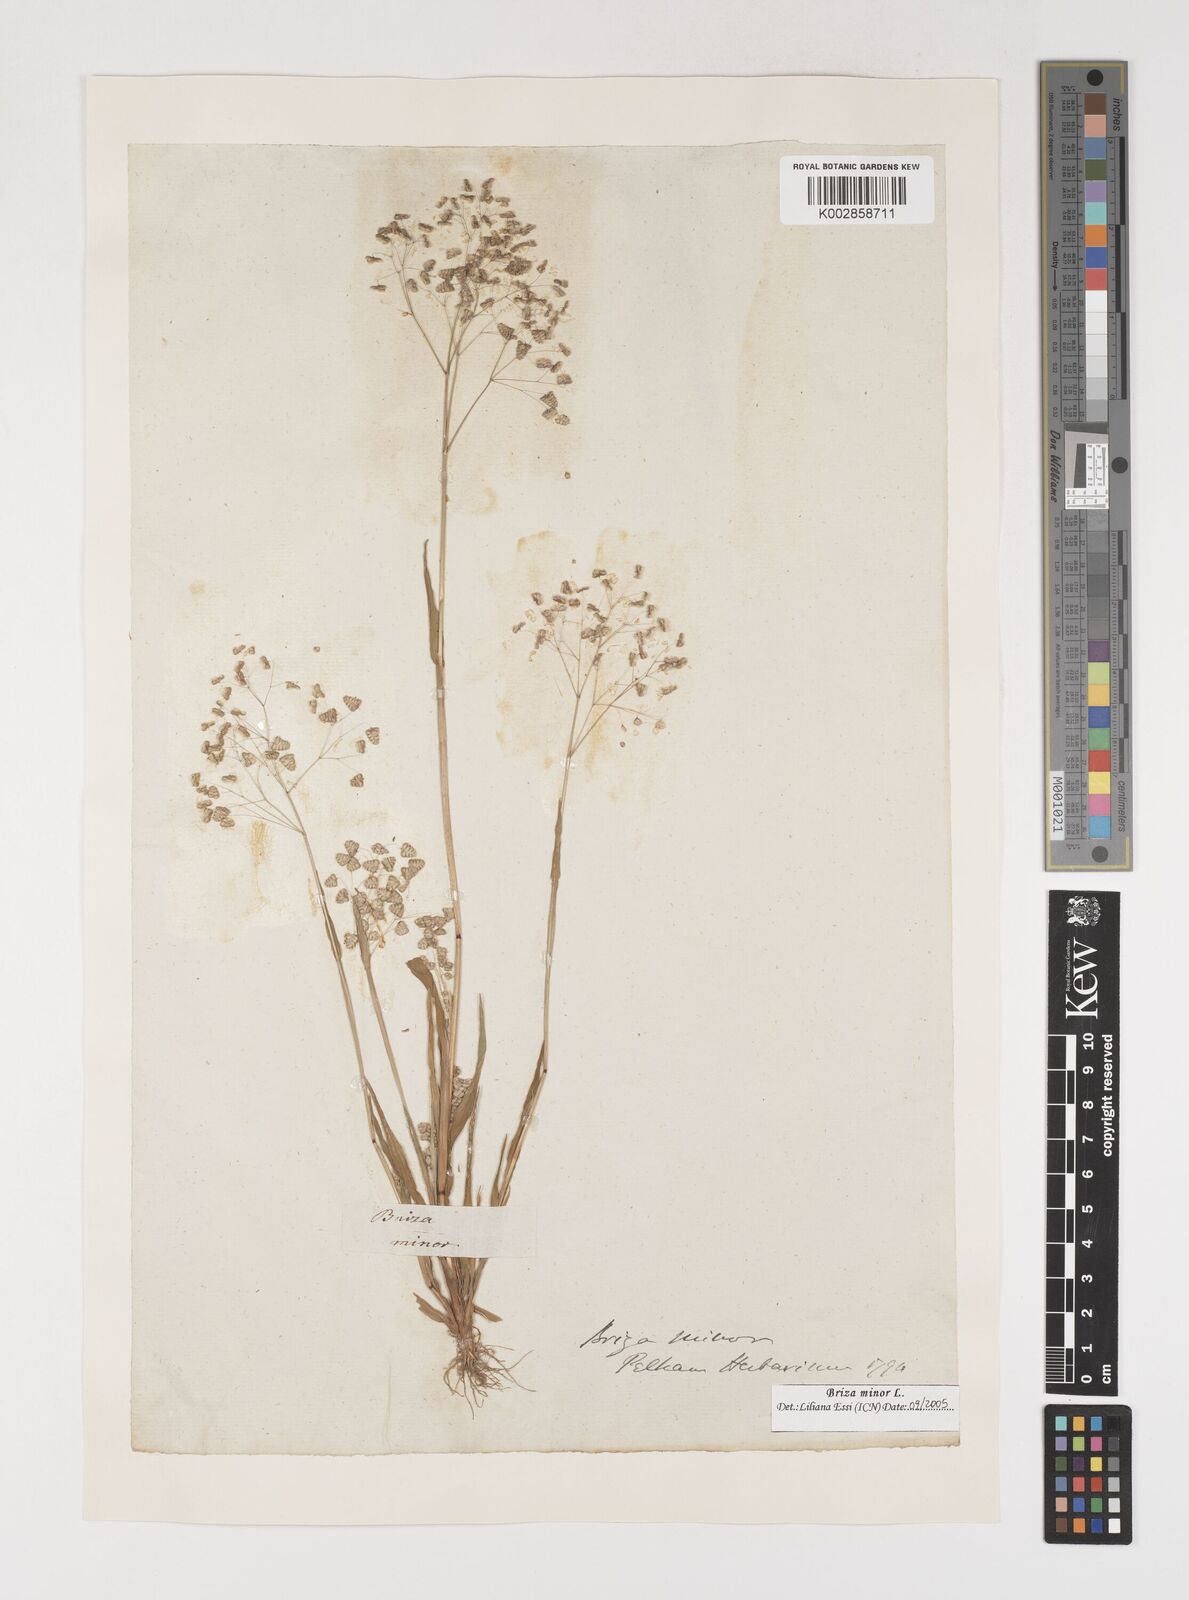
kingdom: Plantae
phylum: Tracheophyta
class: Liliopsida
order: Poales
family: Poaceae
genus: Briza
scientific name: Briza minor
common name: Lesser quaking-grass
